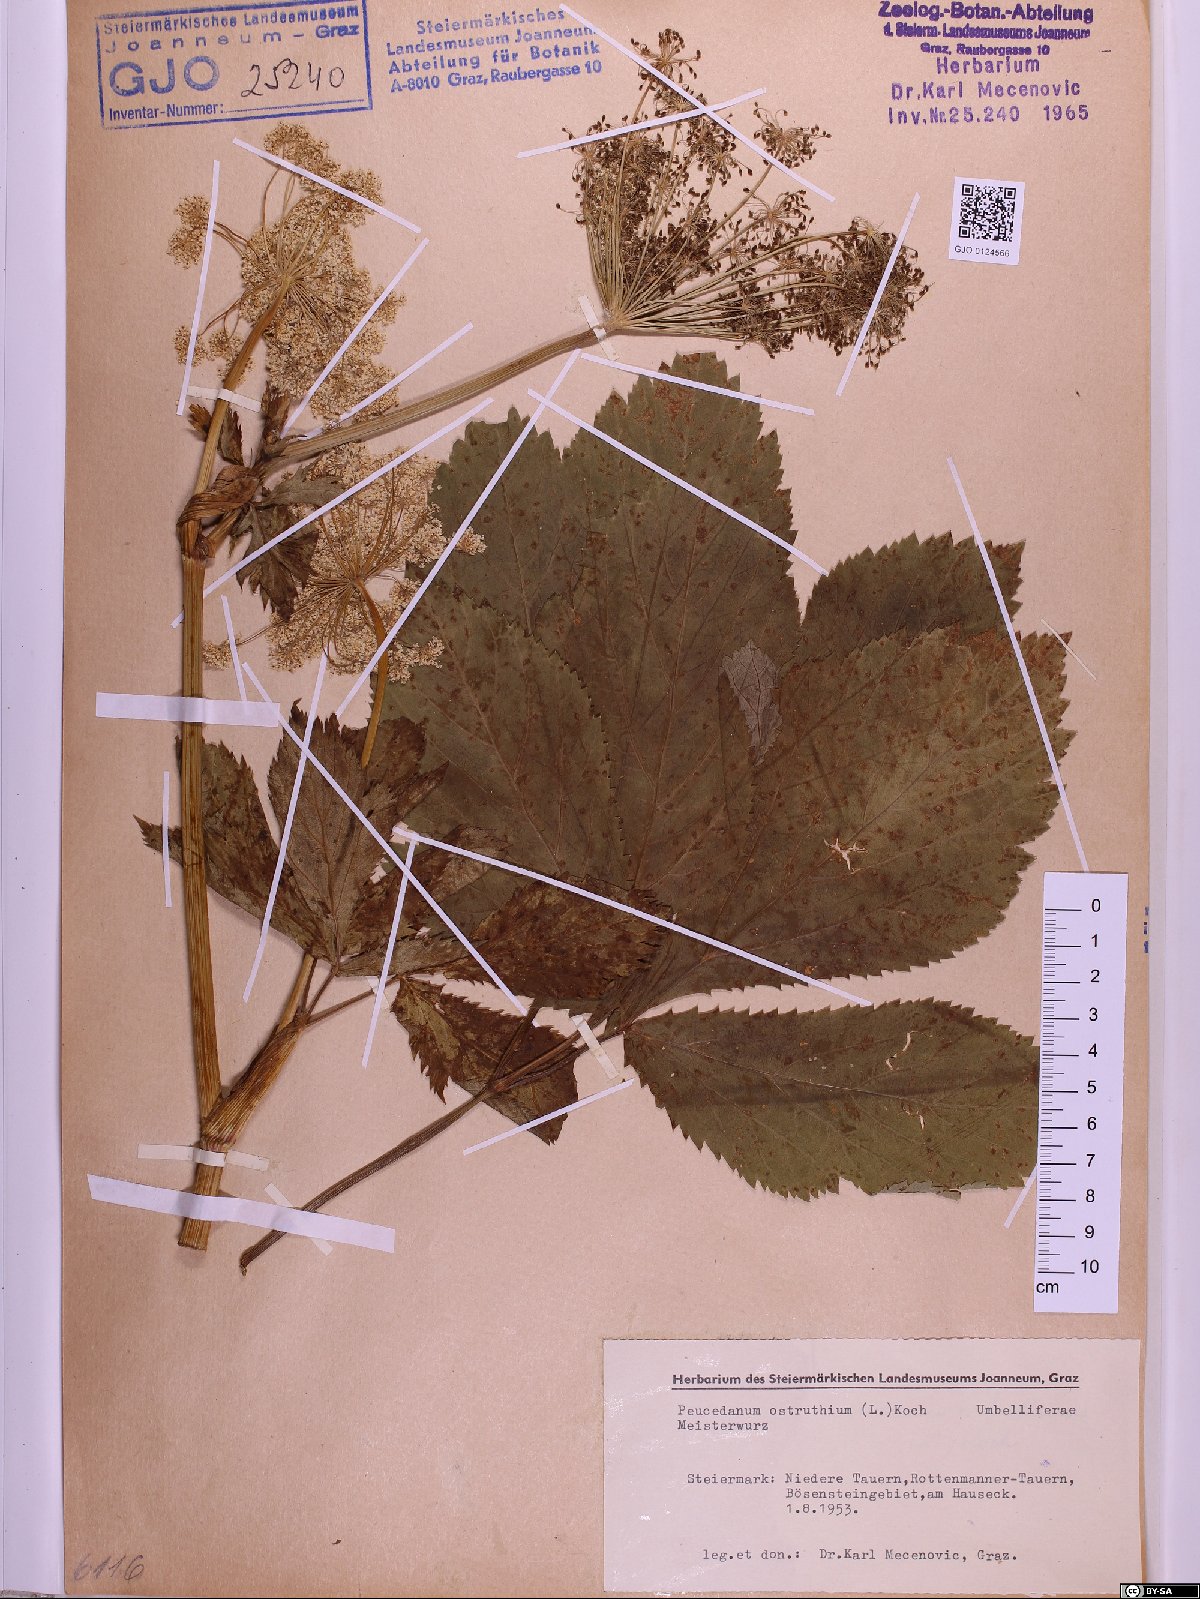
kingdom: Plantae
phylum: Tracheophyta
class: Magnoliopsida
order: Apiales
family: Apiaceae
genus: Imperatoria
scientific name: Imperatoria ostruthium
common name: Masterwort
